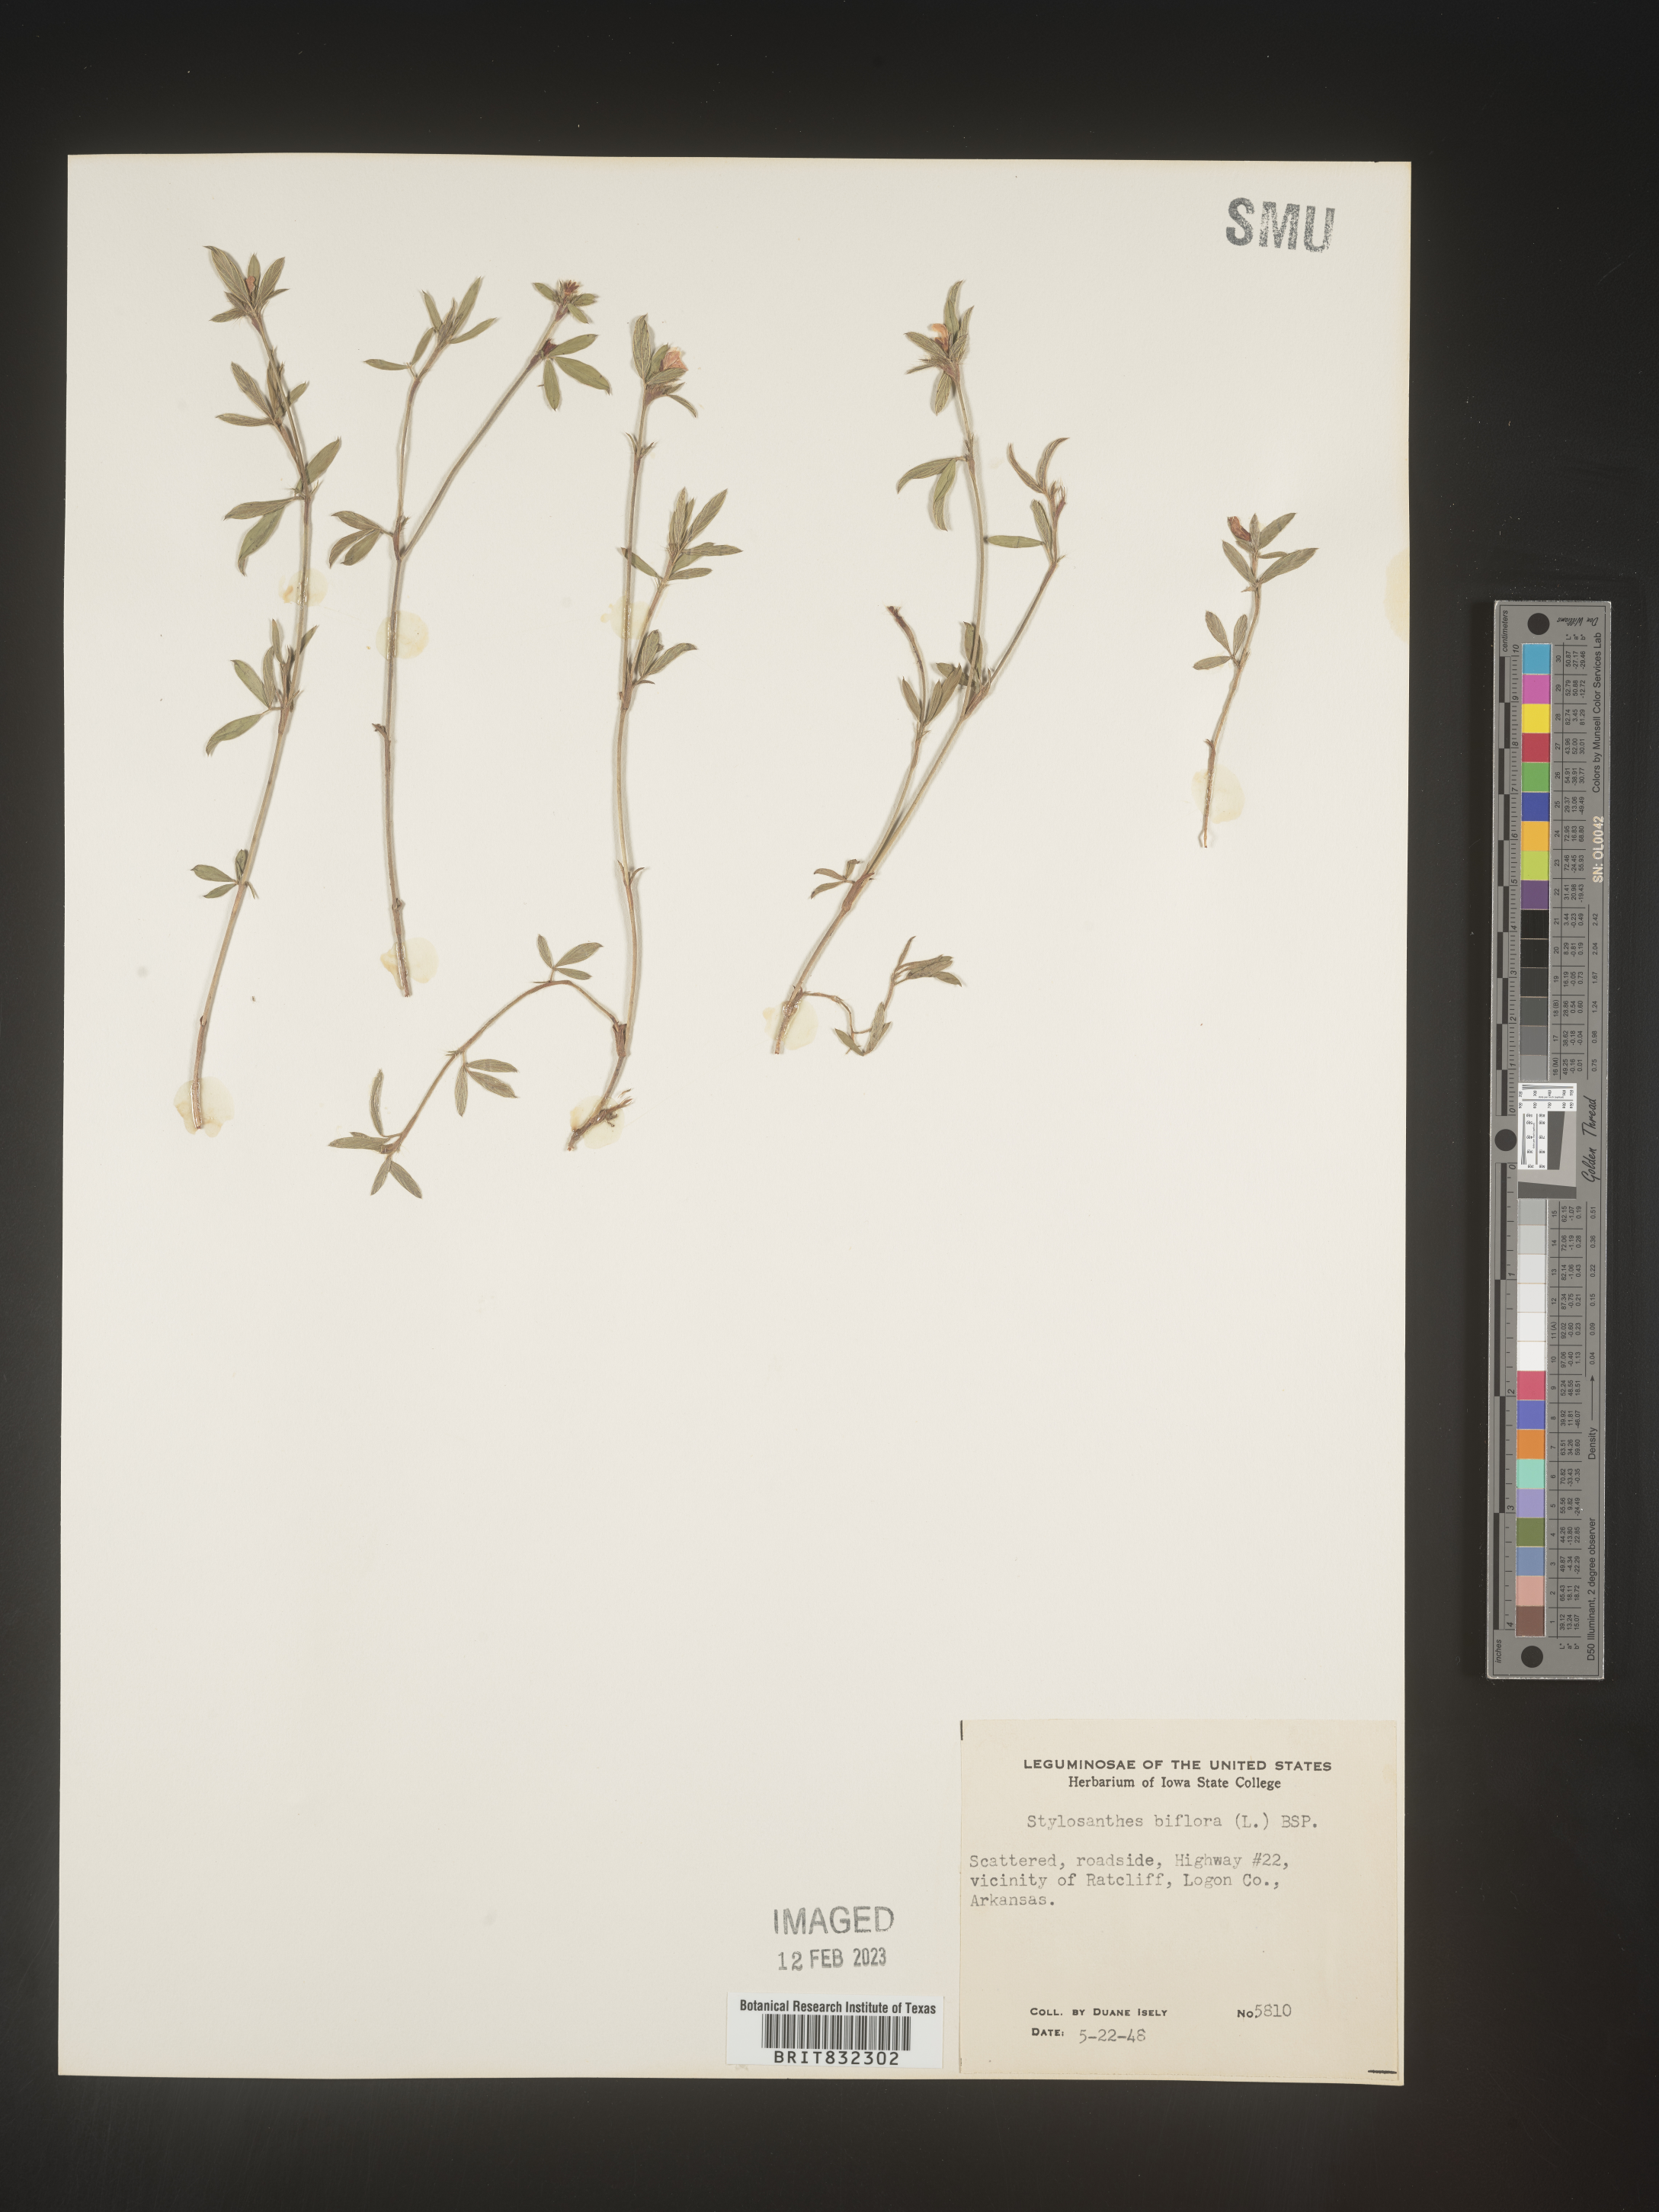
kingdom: Plantae
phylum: Tracheophyta
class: Magnoliopsida
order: Fabales
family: Fabaceae
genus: Stylosanthes
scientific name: Stylosanthes biflora
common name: Two-flower pencil-flower
